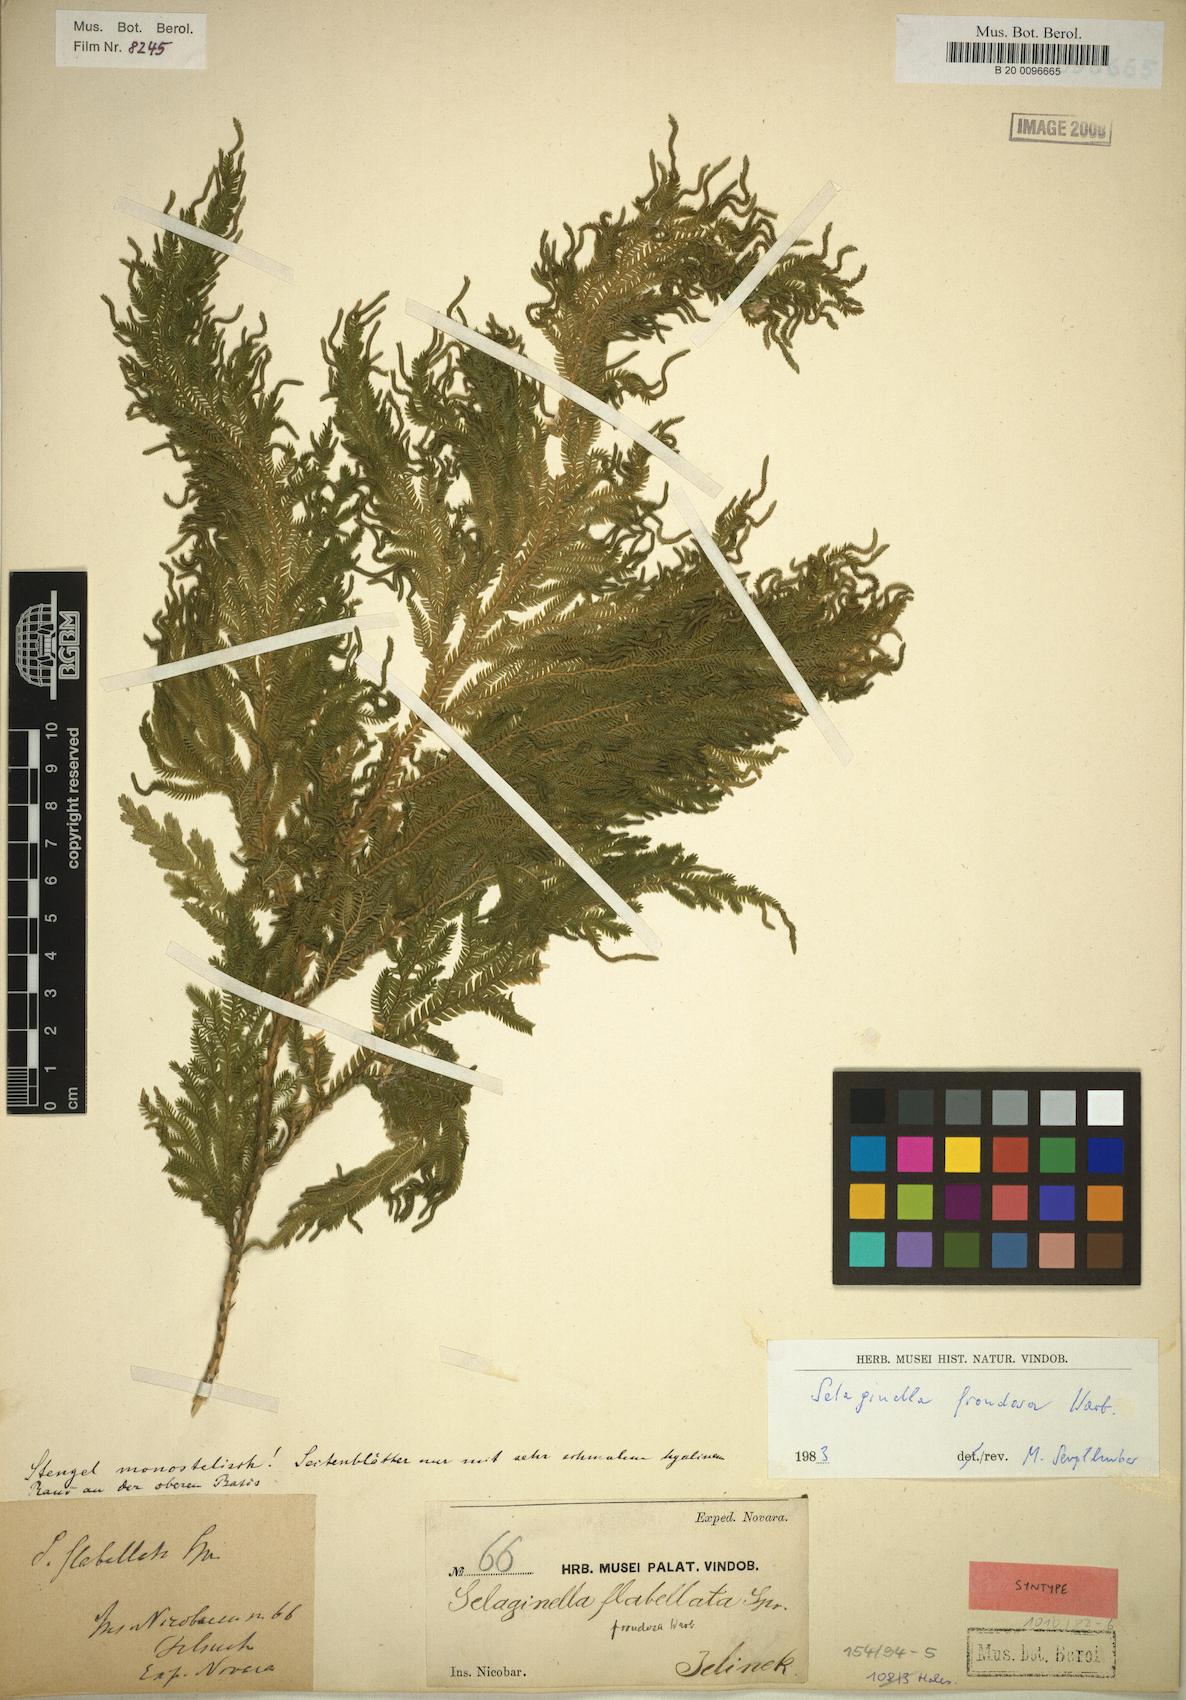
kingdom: Plantae
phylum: Tracheophyta
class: Lycopodiopsida
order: Selaginellales
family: Selaginellaceae
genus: Selaginella
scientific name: Selaginella frondosa
